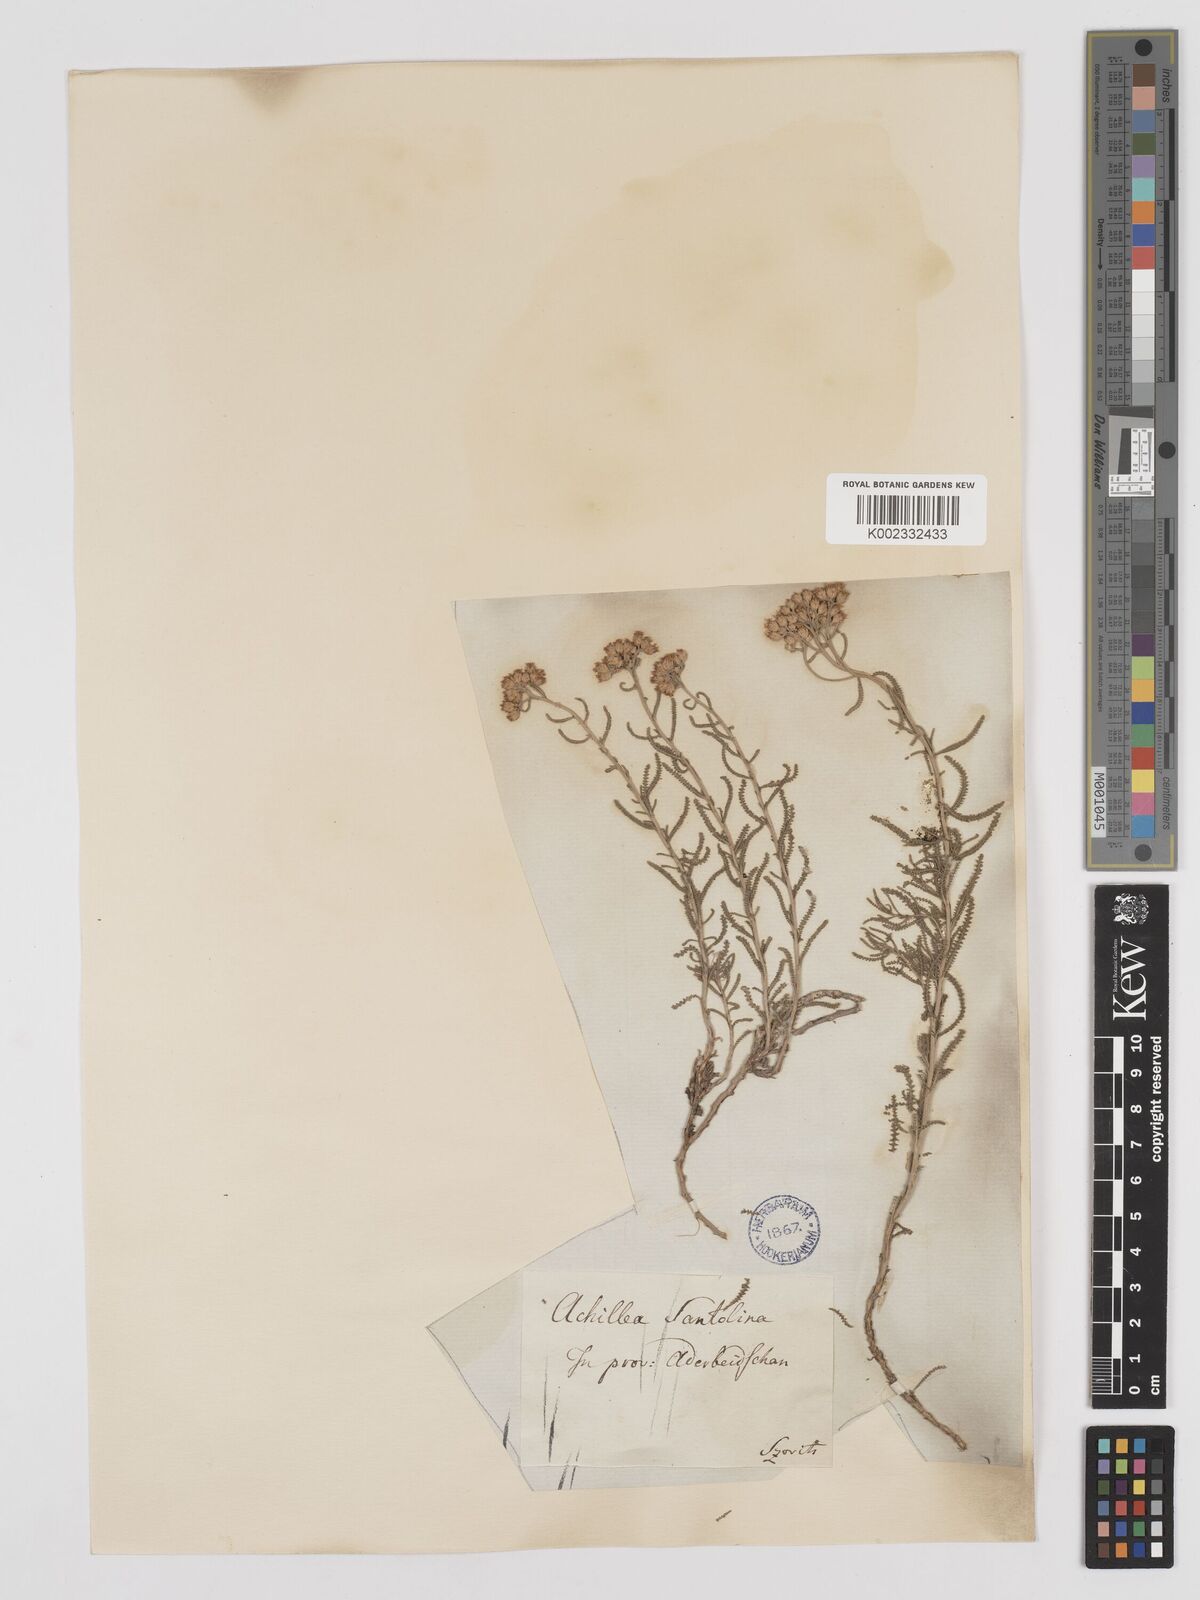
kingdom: Plantae
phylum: Tracheophyta
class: Magnoliopsida
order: Asterales
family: Asteraceae
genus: Achillea
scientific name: Achillea tenuifolia
